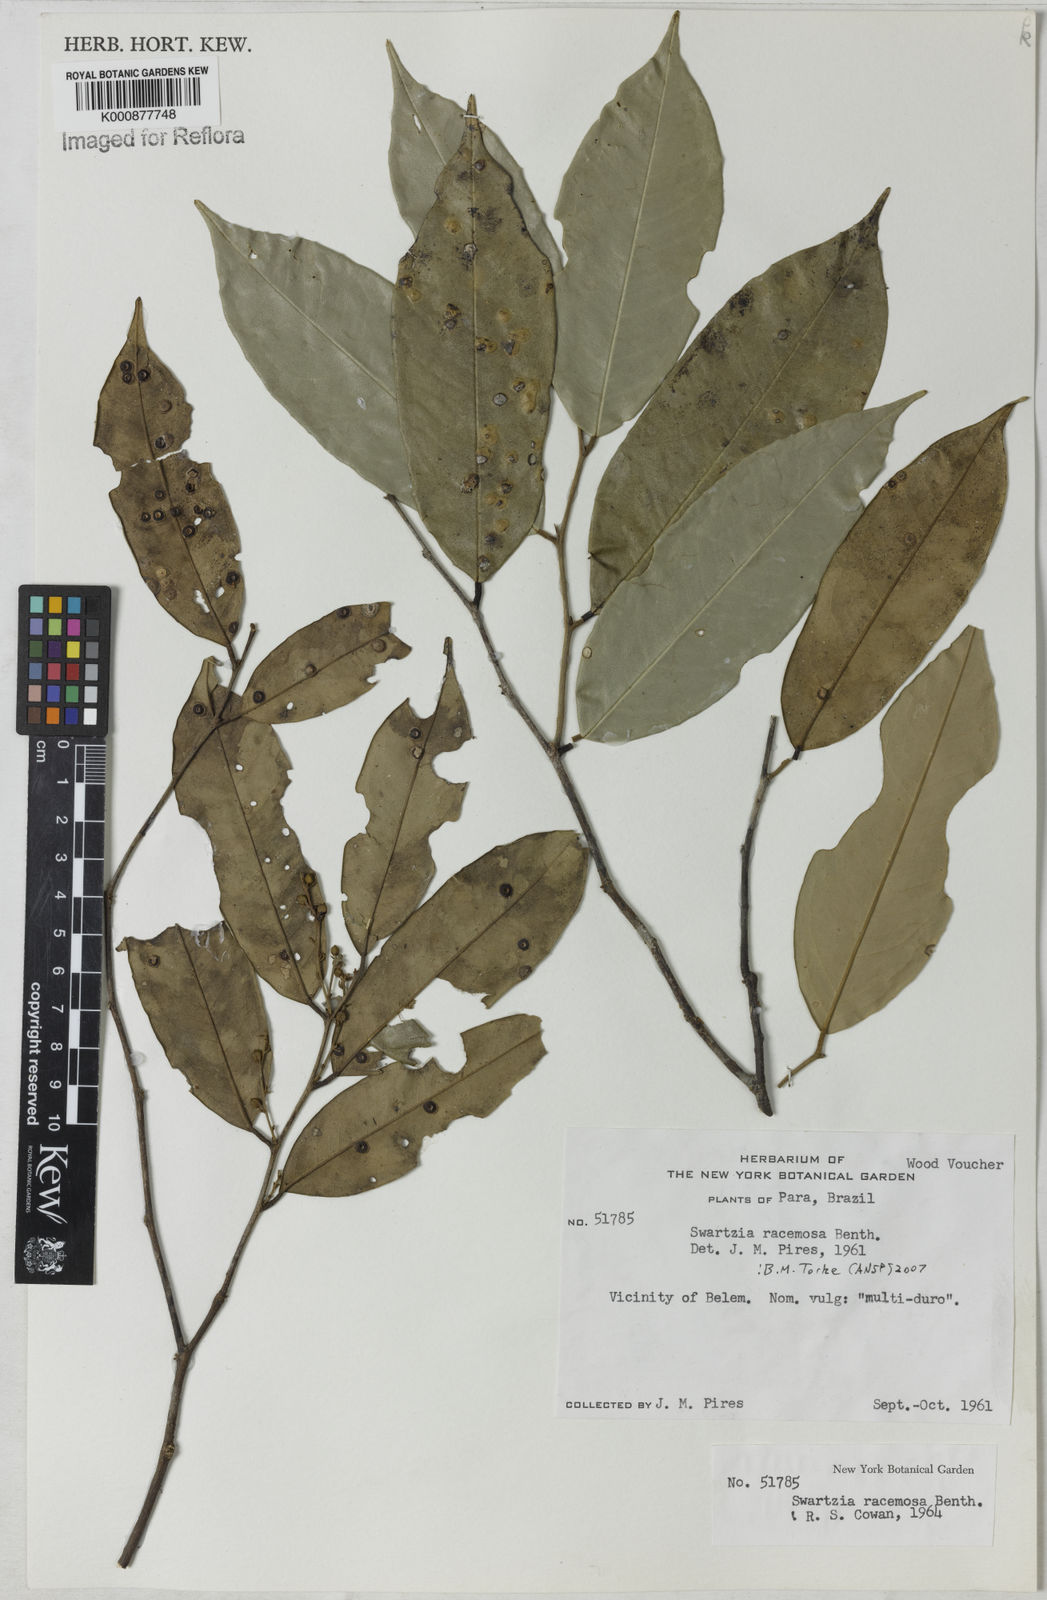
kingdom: Plantae
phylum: Tracheophyta
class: Magnoliopsida
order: Fabales
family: Fabaceae
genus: Swartzia
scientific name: Swartzia racemosa
